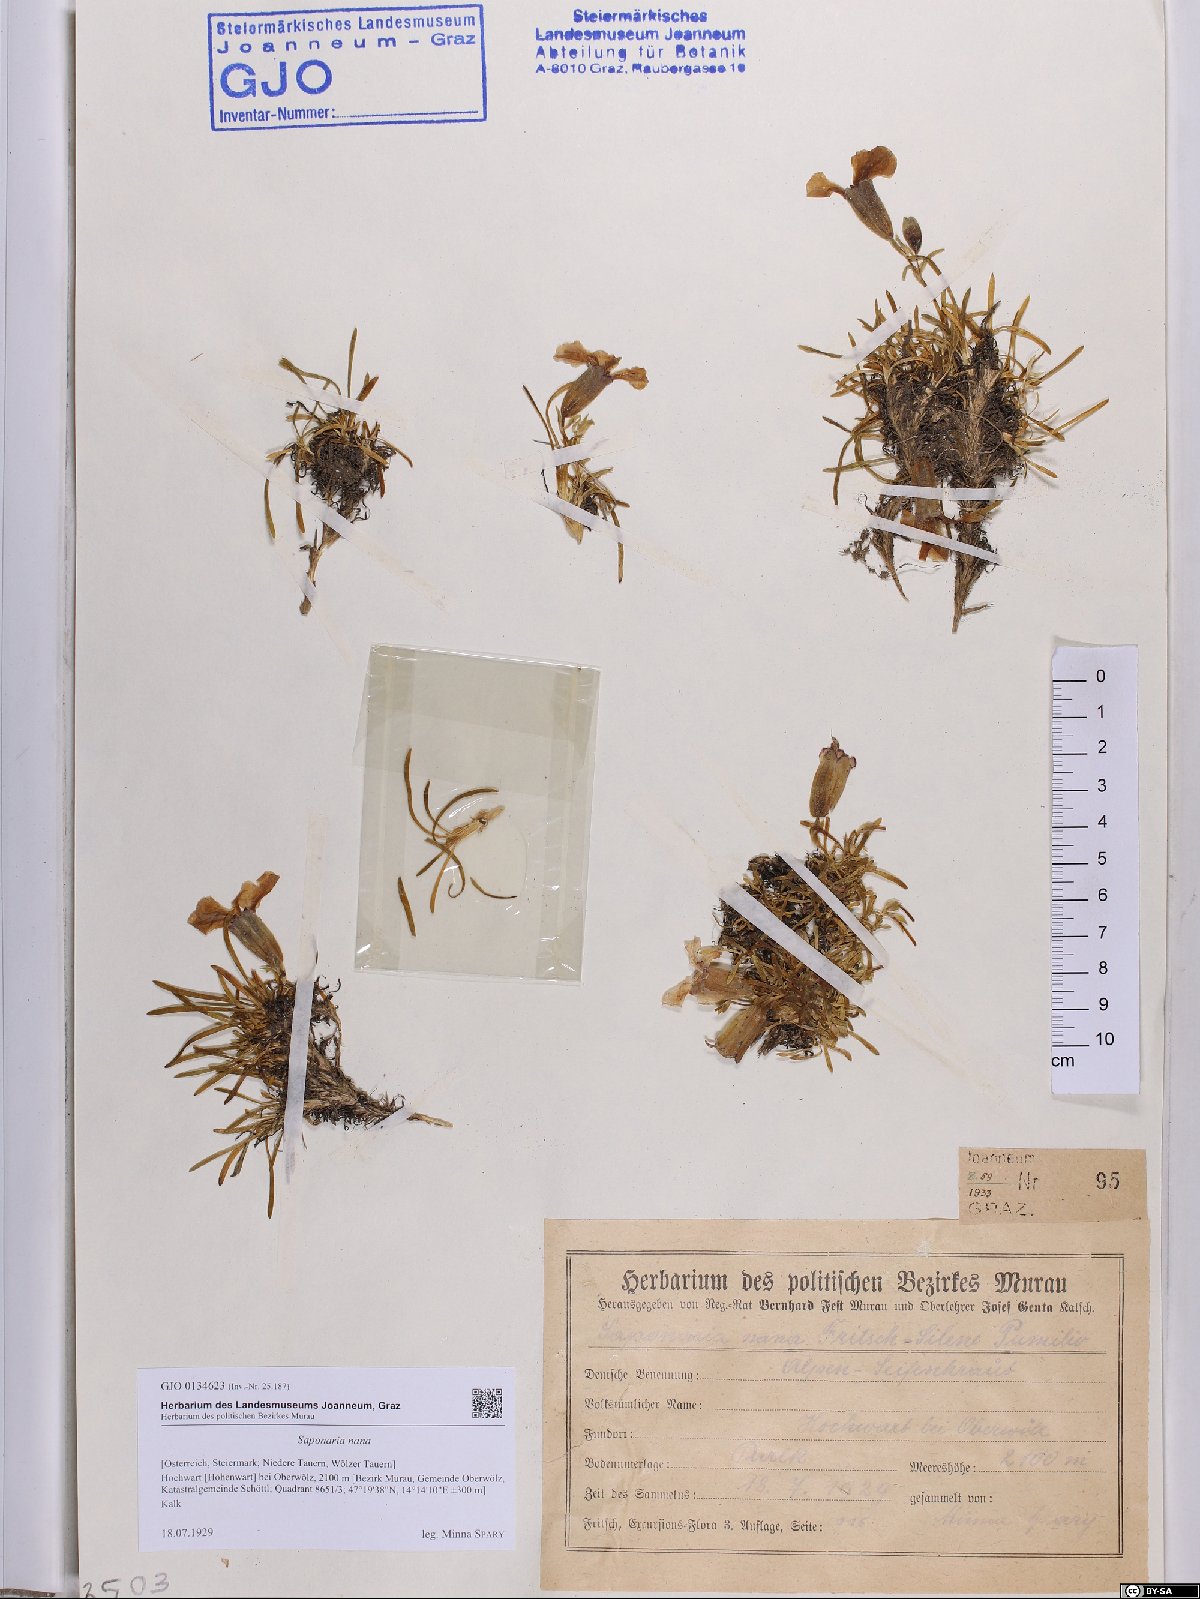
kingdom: Plantae
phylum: Tracheophyta
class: Magnoliopsida
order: Caryophyllales
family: Caryophyllaceae
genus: Saponaria
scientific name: Saponaria pumila
